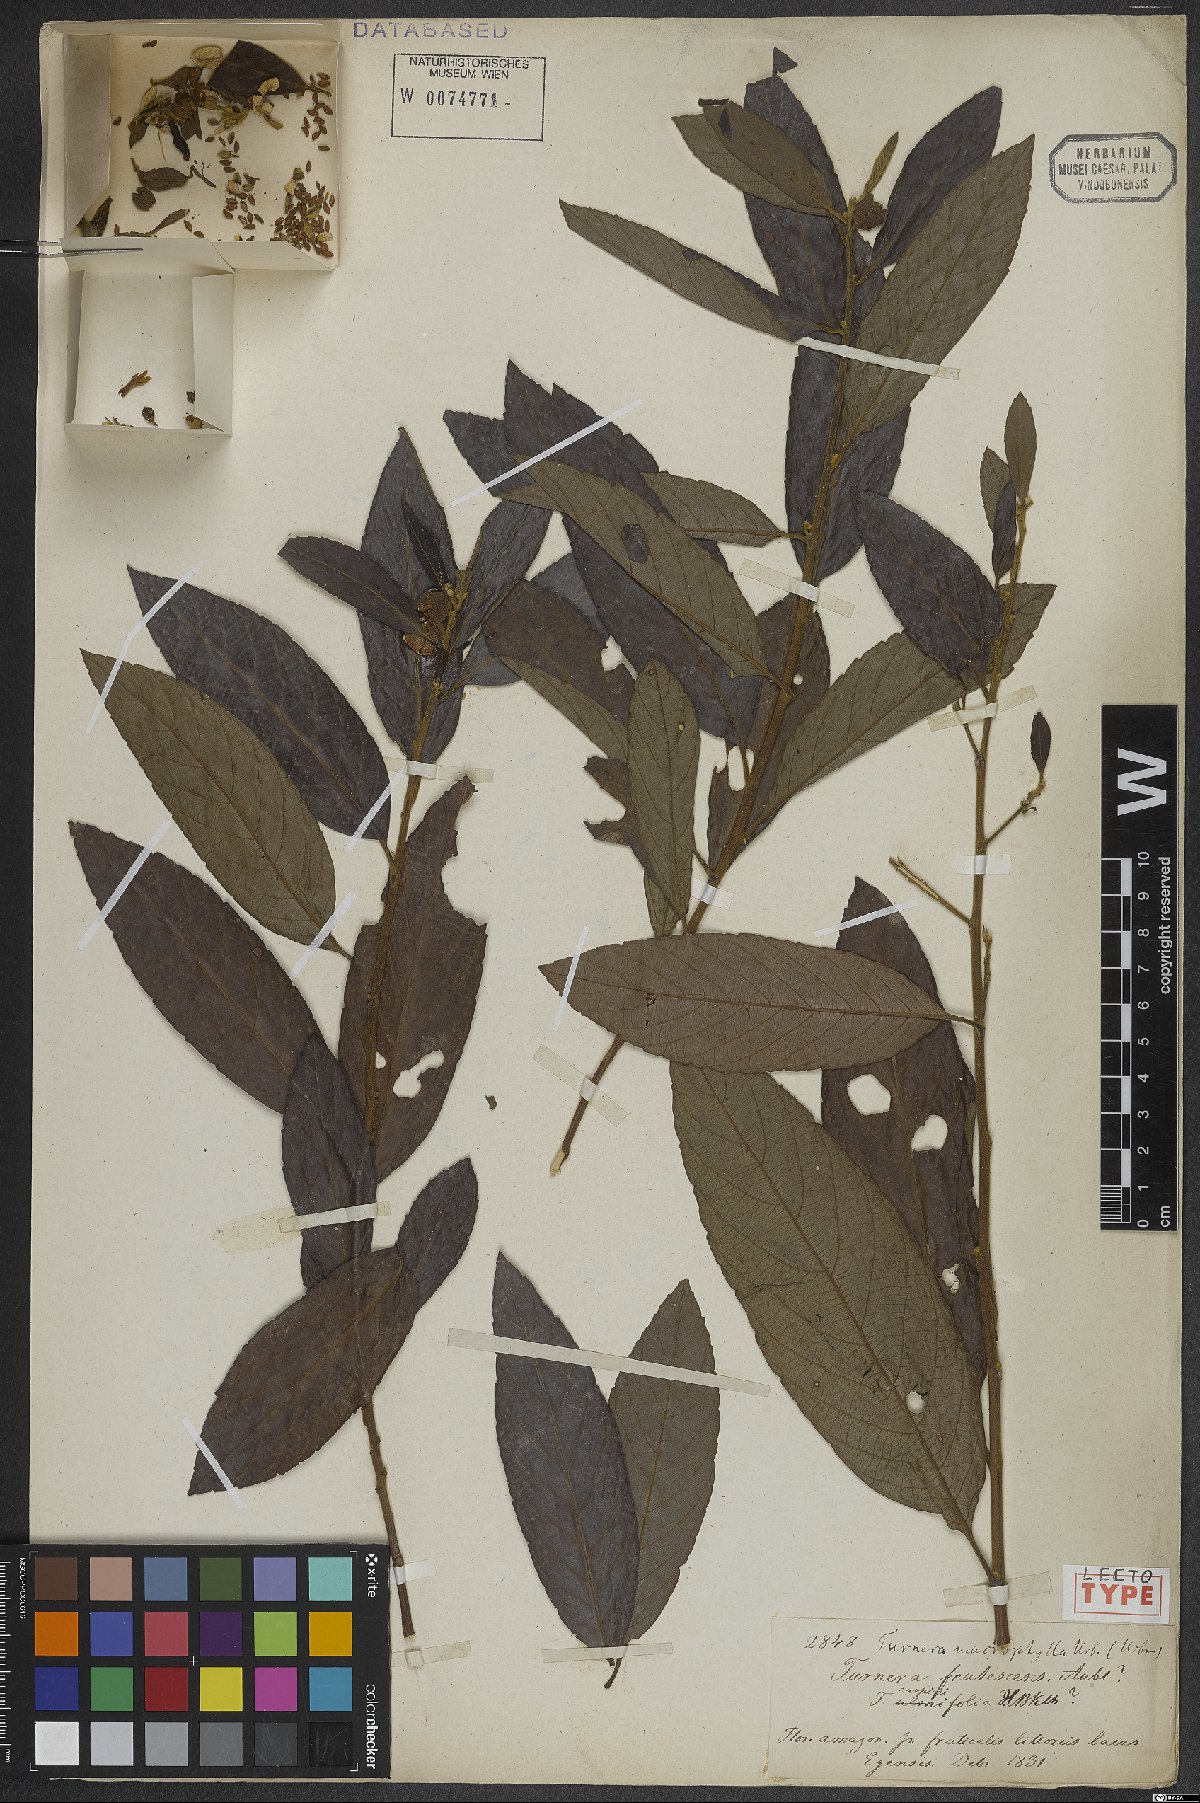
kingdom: Plantae
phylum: Tracheophyta
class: Magnoliopsida
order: Malpighiales
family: Turneraceae
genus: Turnera
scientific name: Turnera macrophylla
